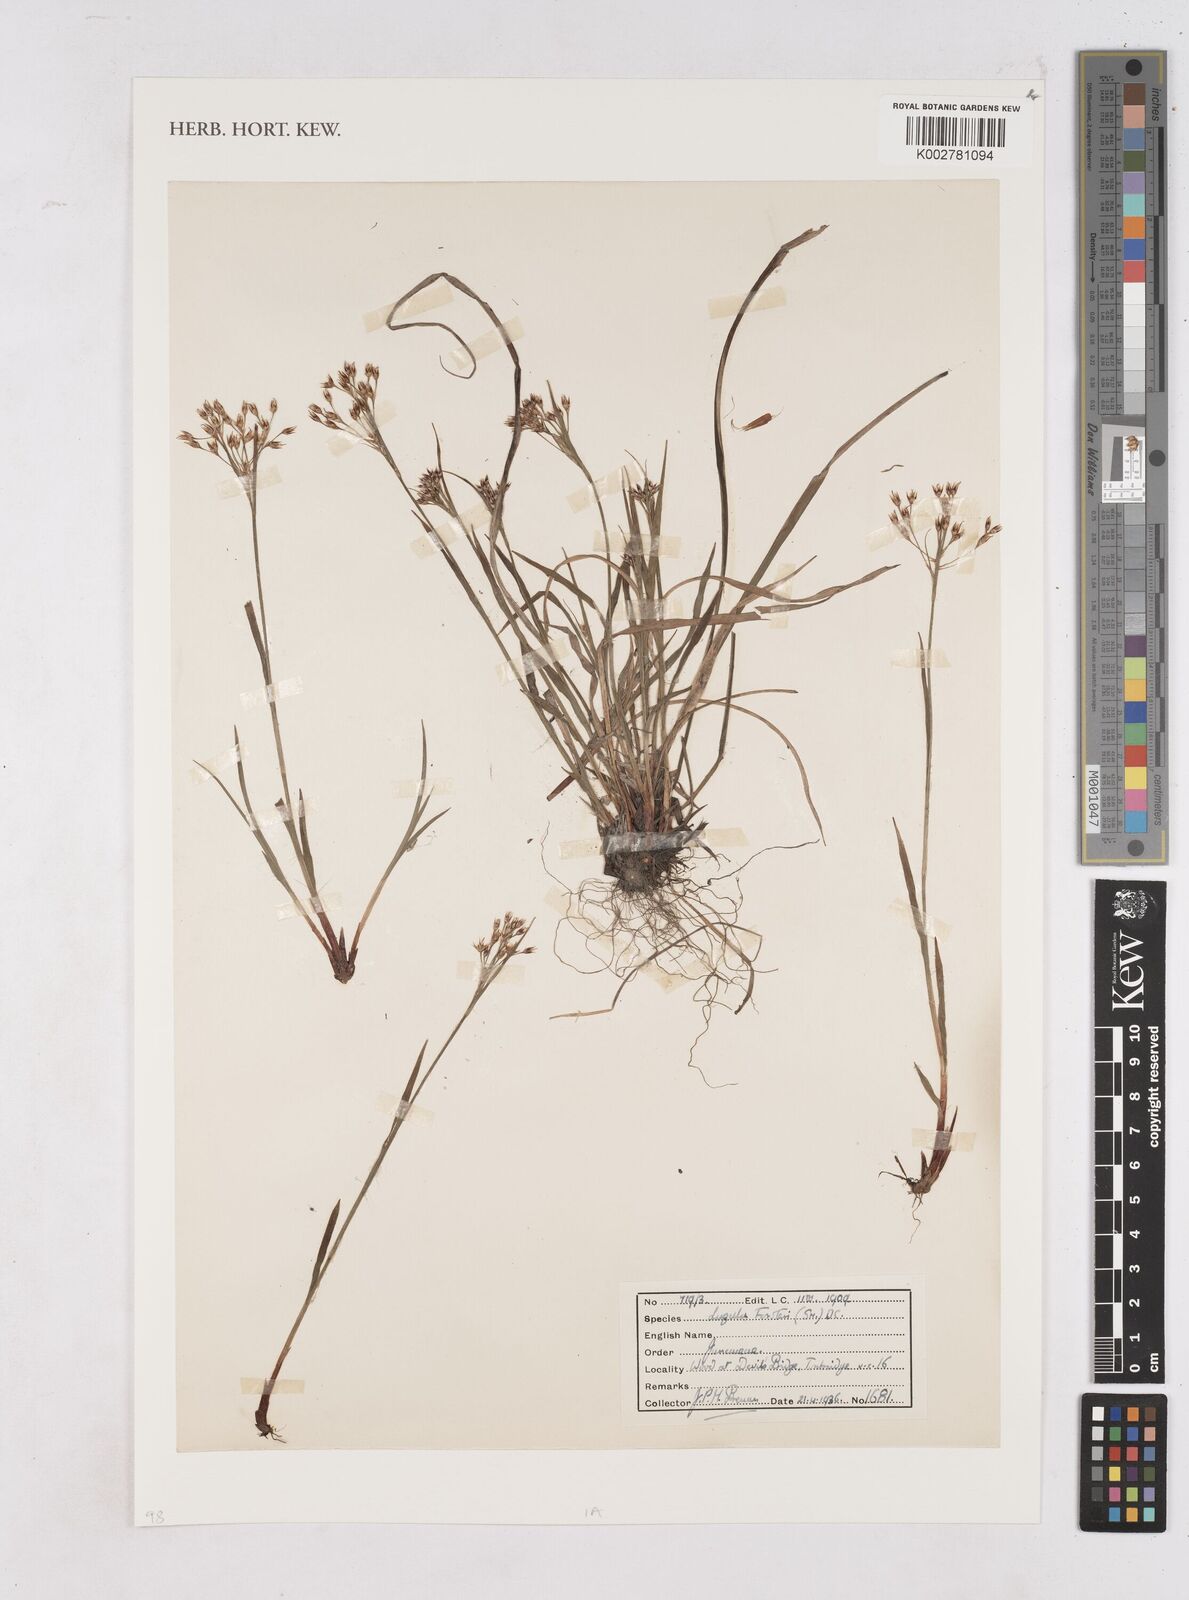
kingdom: Plantae
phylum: Tracheophyta
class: Liliopsida
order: Poales
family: Juncaceae
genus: Luzula
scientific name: Luzula forsteri
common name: Southern wood-rush
